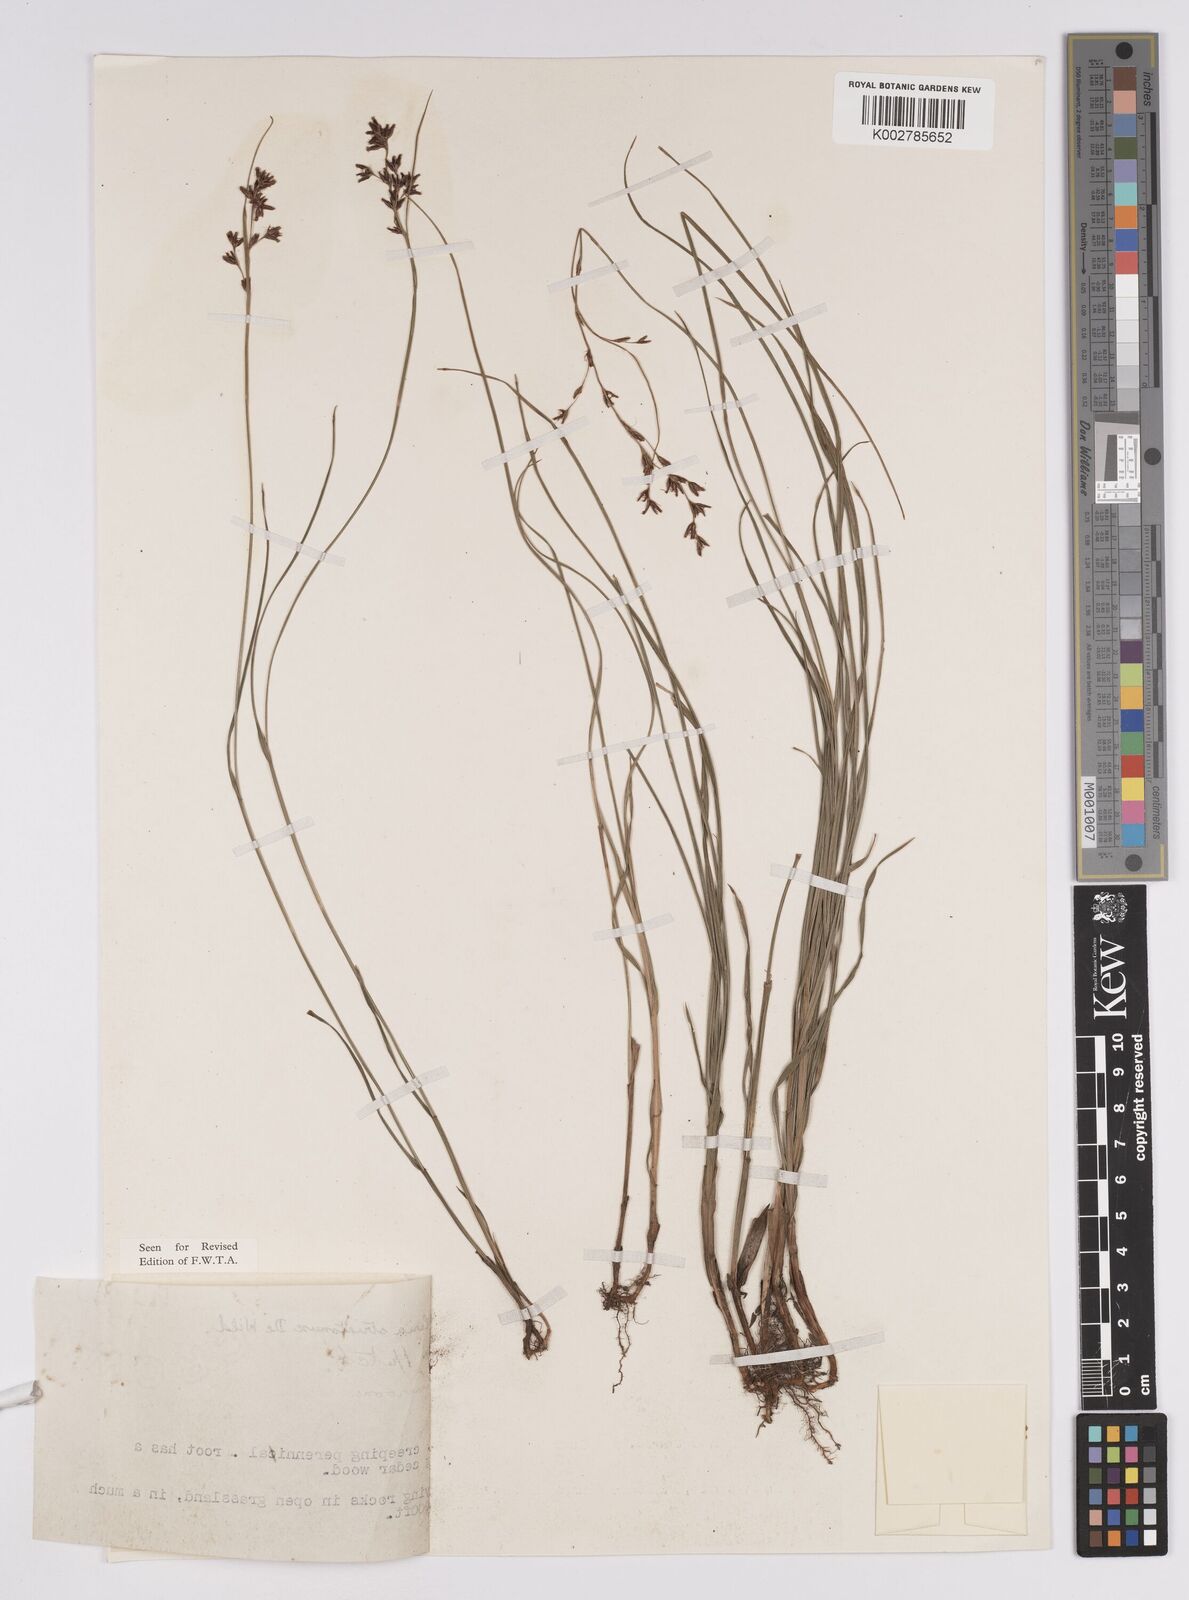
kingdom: Plantae
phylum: Tracheophyta
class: Liliopsida
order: Poales
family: Cyperaceae
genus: Scleria
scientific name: Scleria woodii
